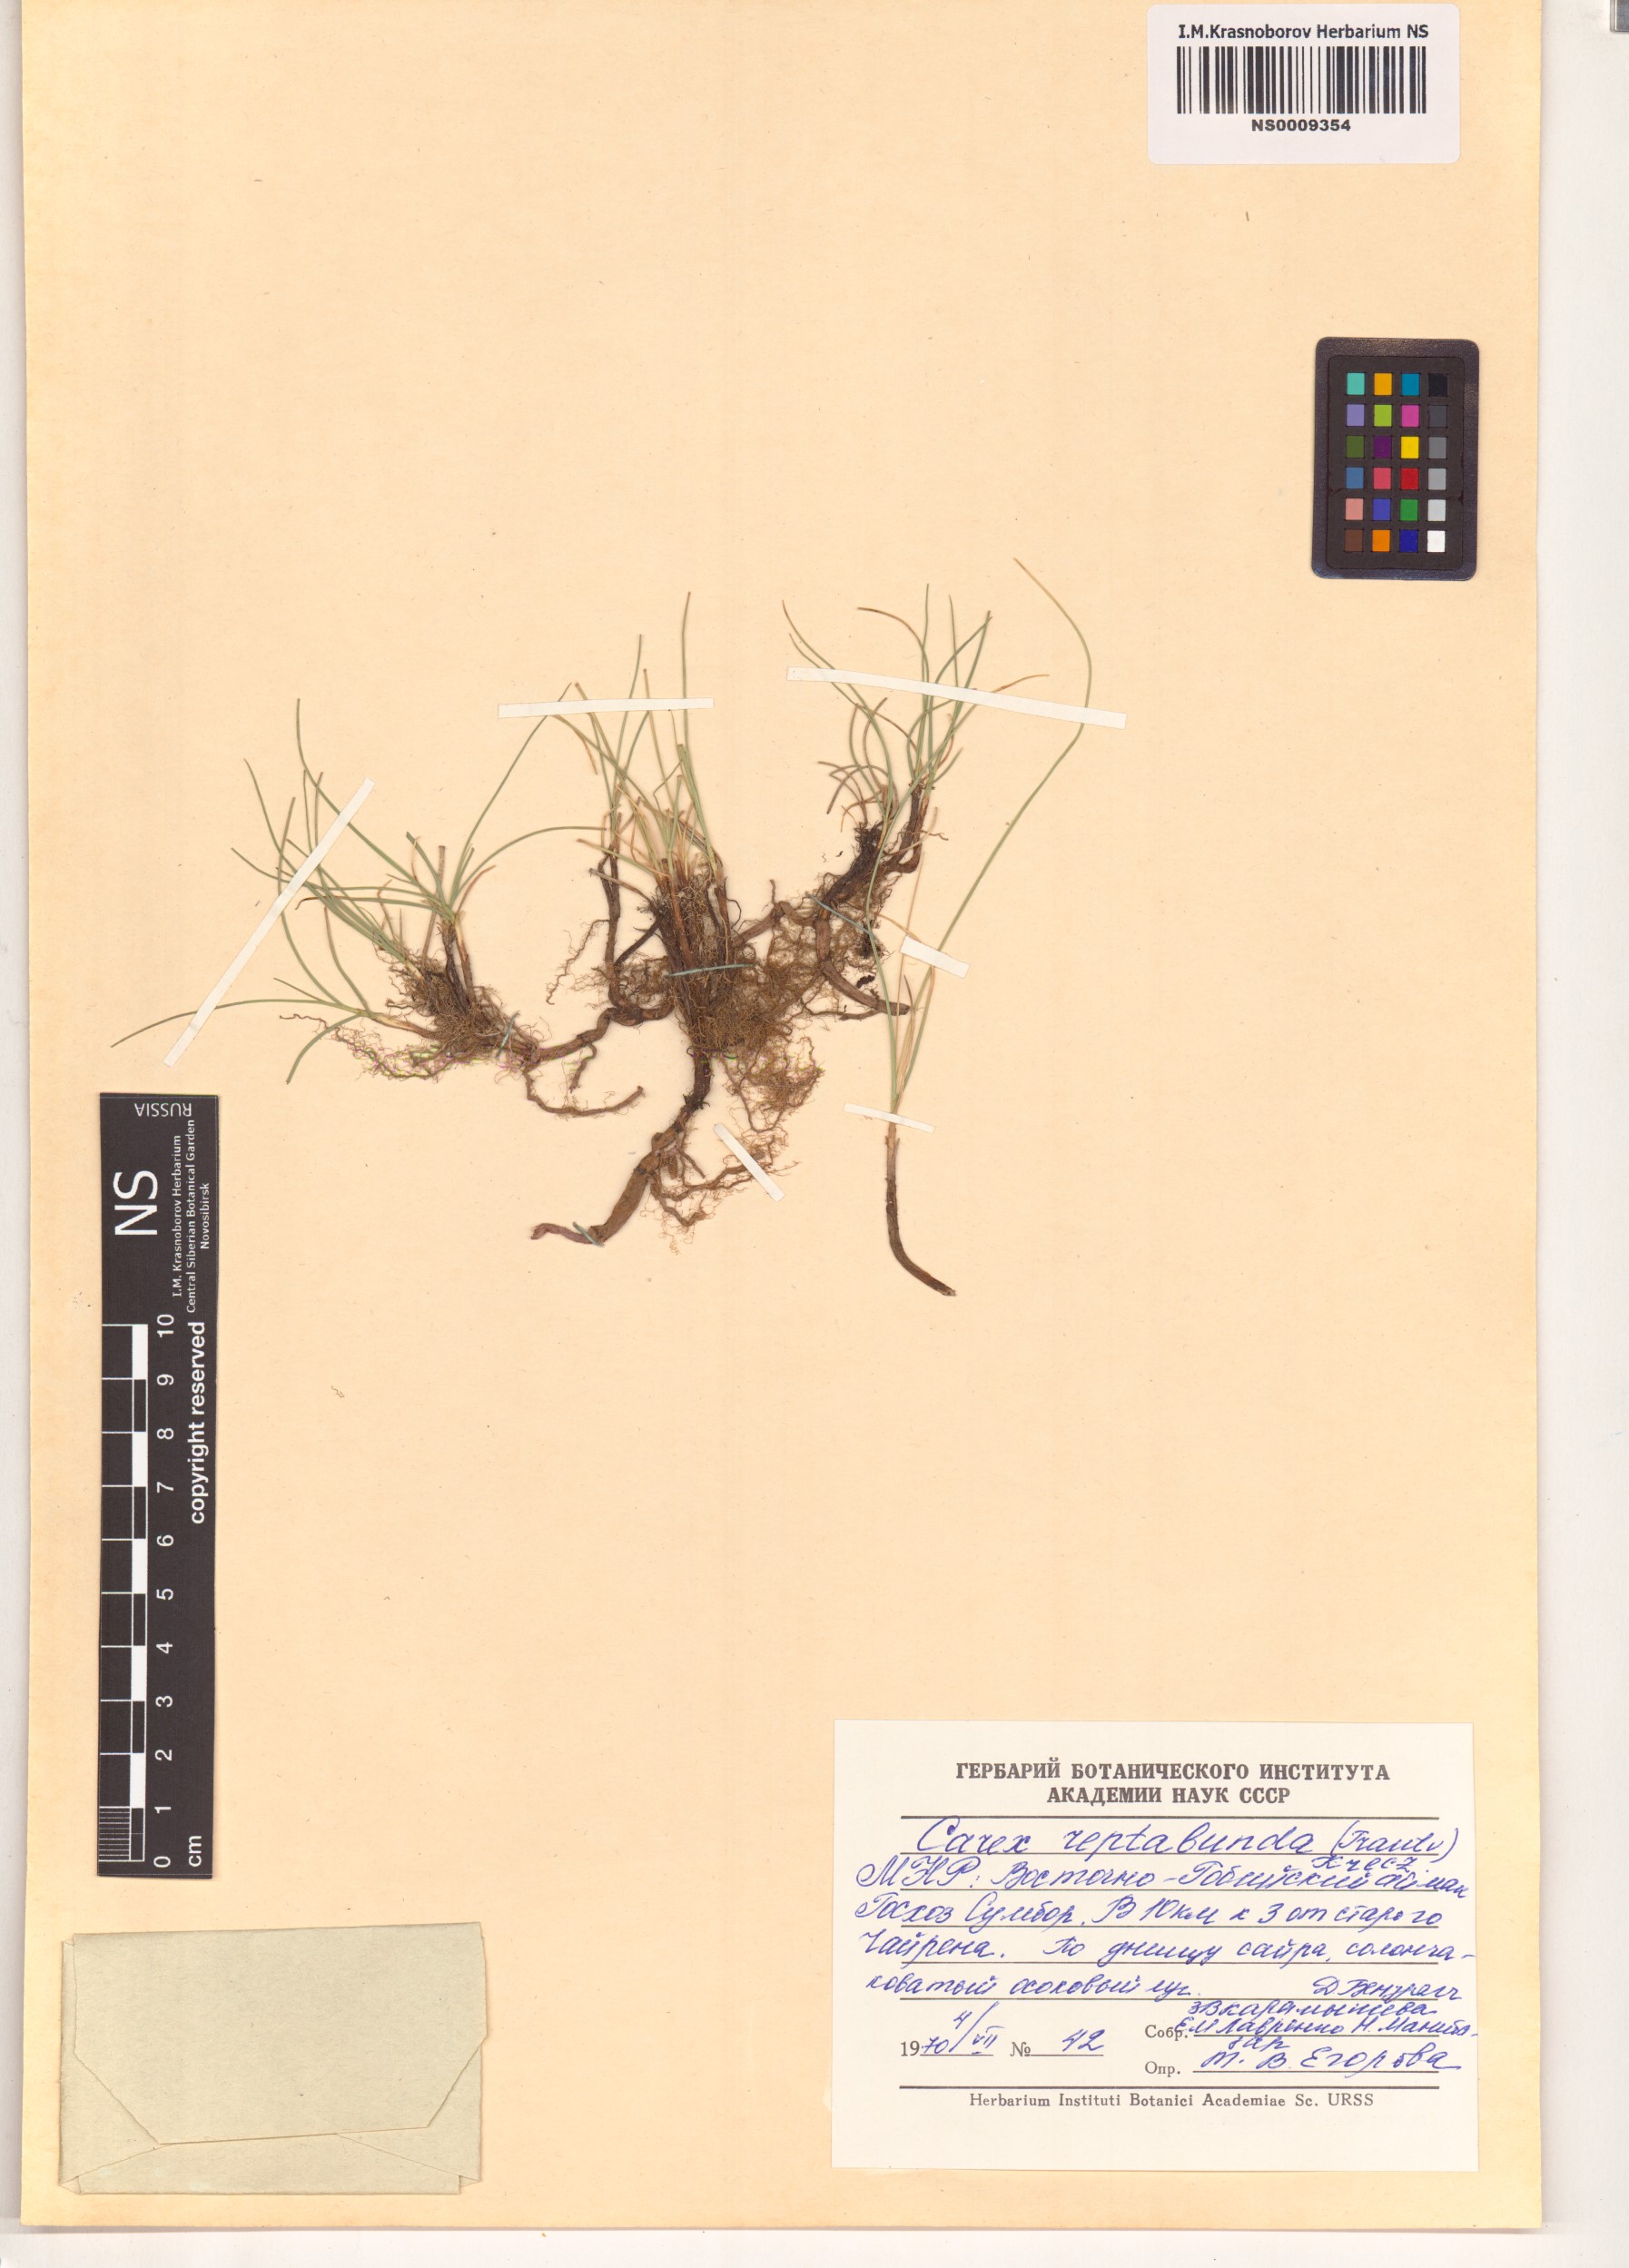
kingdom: Plantae
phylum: Tracheophyta
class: Liliopsida
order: Poales
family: Cyperaceae
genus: Carex
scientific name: Carex reptabunda
